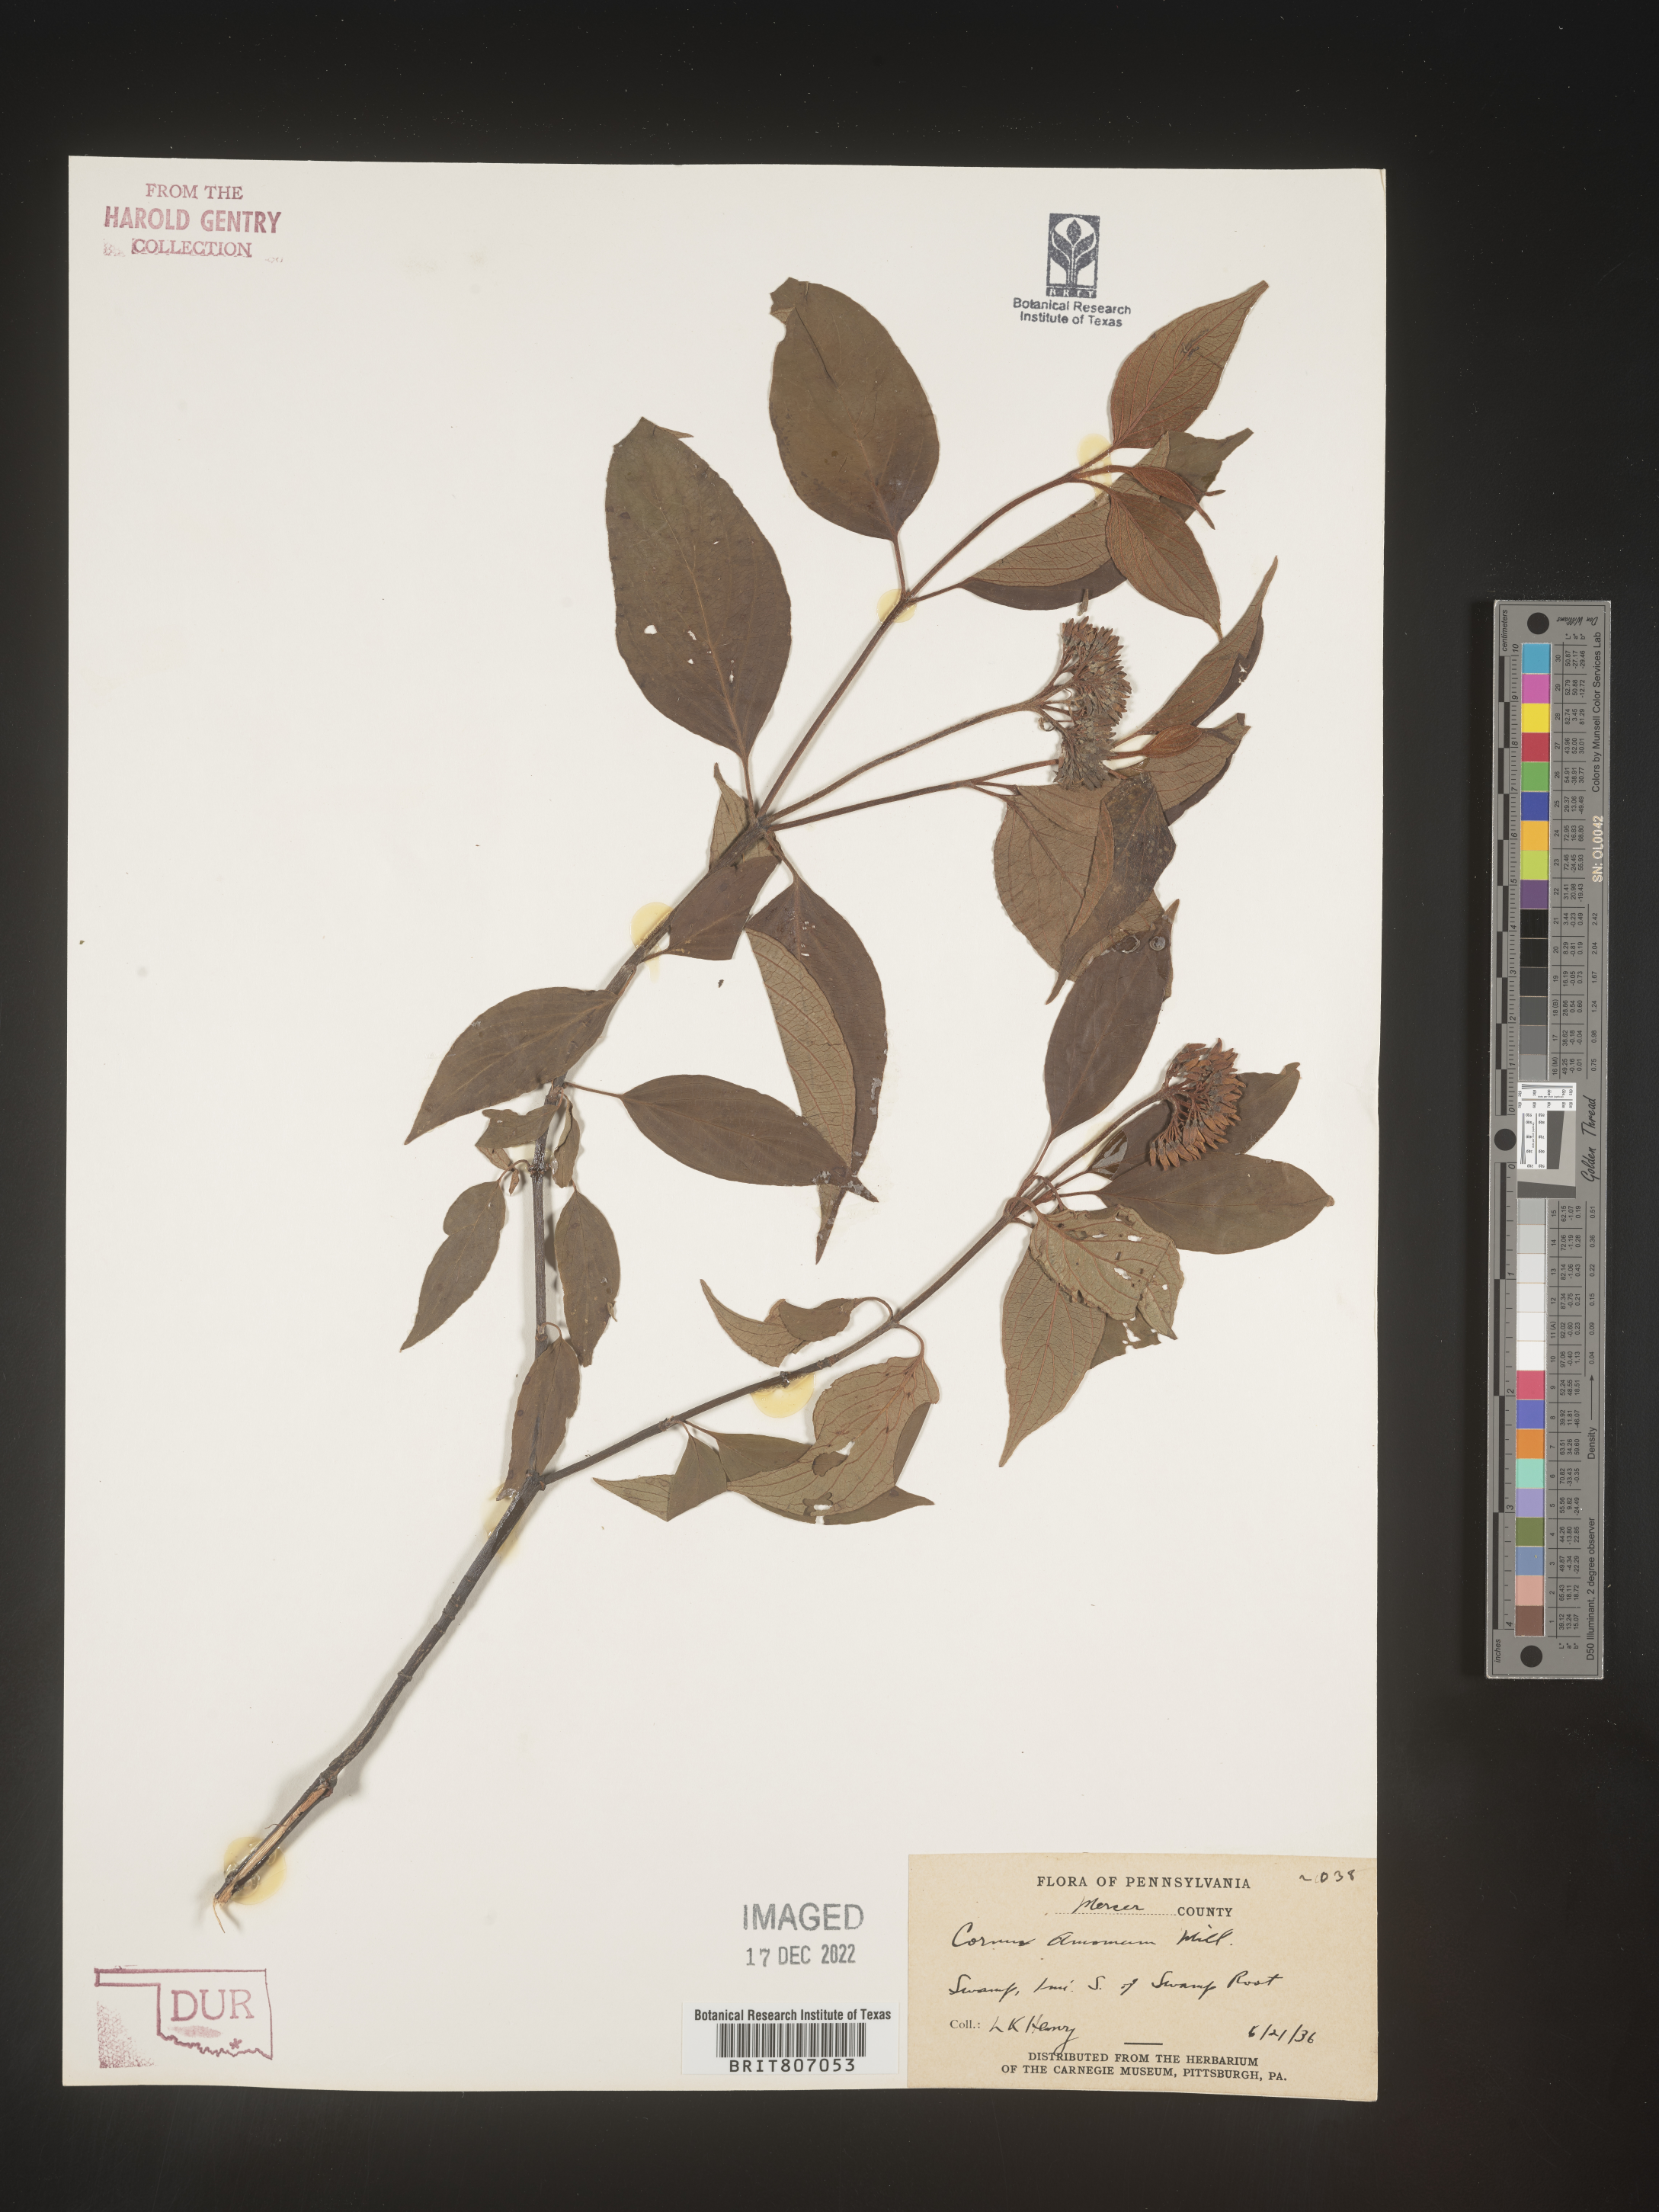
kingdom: Plantae
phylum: Tracheophyta
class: Magnoliopsida
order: Cornales
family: Cornaceae
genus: Cornus
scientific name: Cornus amomum
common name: Silky dogwood
